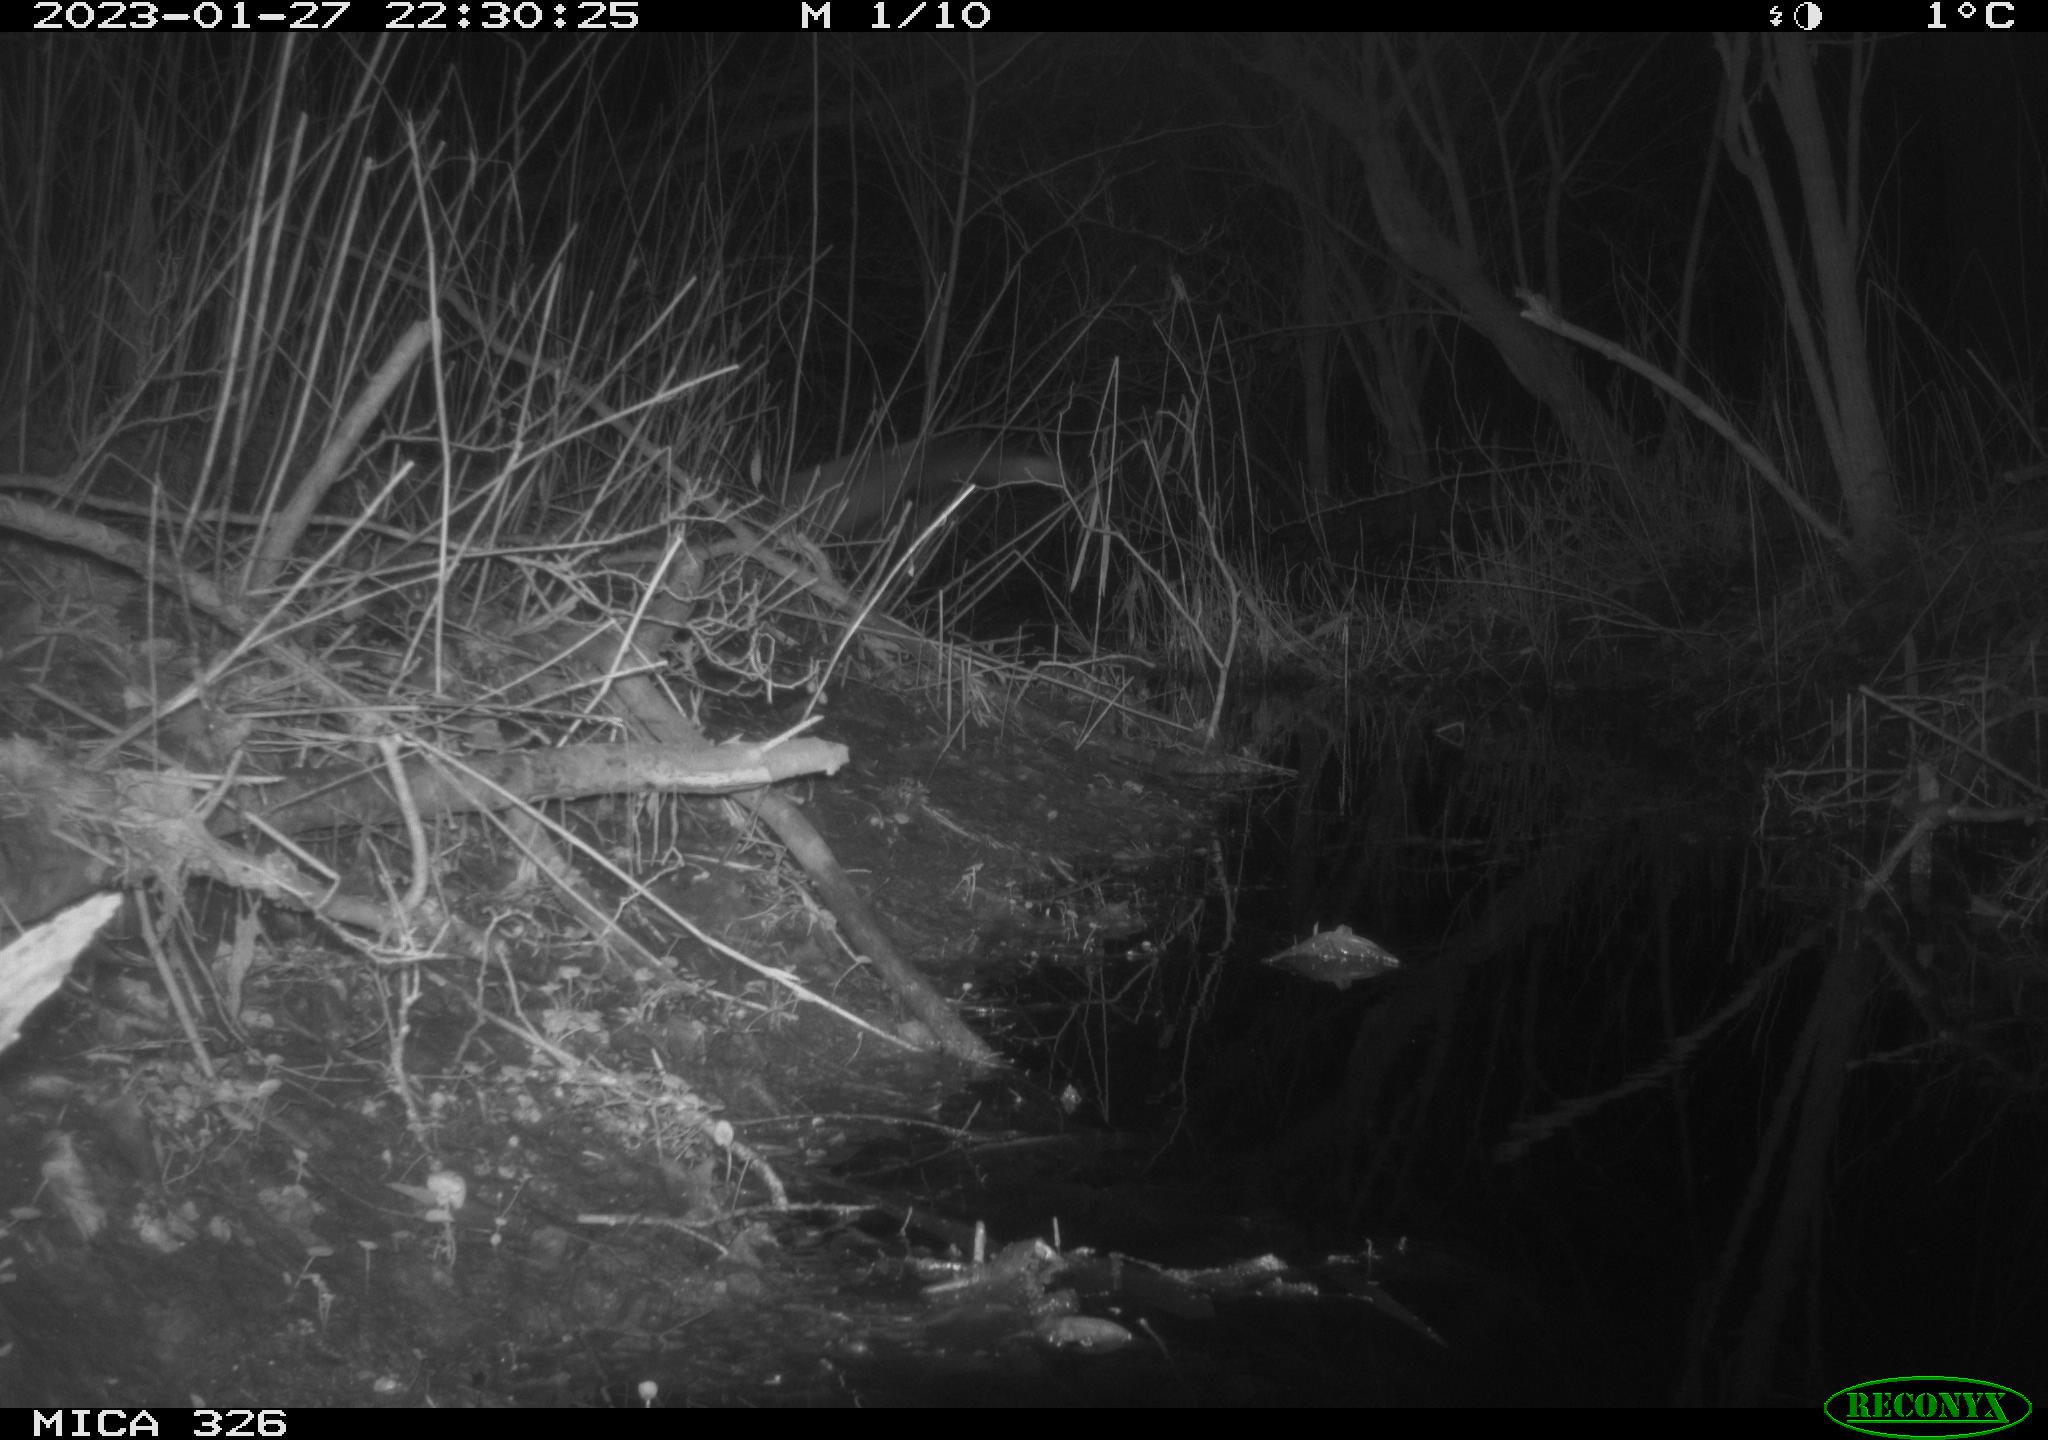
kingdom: Animalia
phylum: Chordata
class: Mammalia
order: Carnivora
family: Canidae
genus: Vulpes
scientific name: Vulpes vulpes
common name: Red fox
